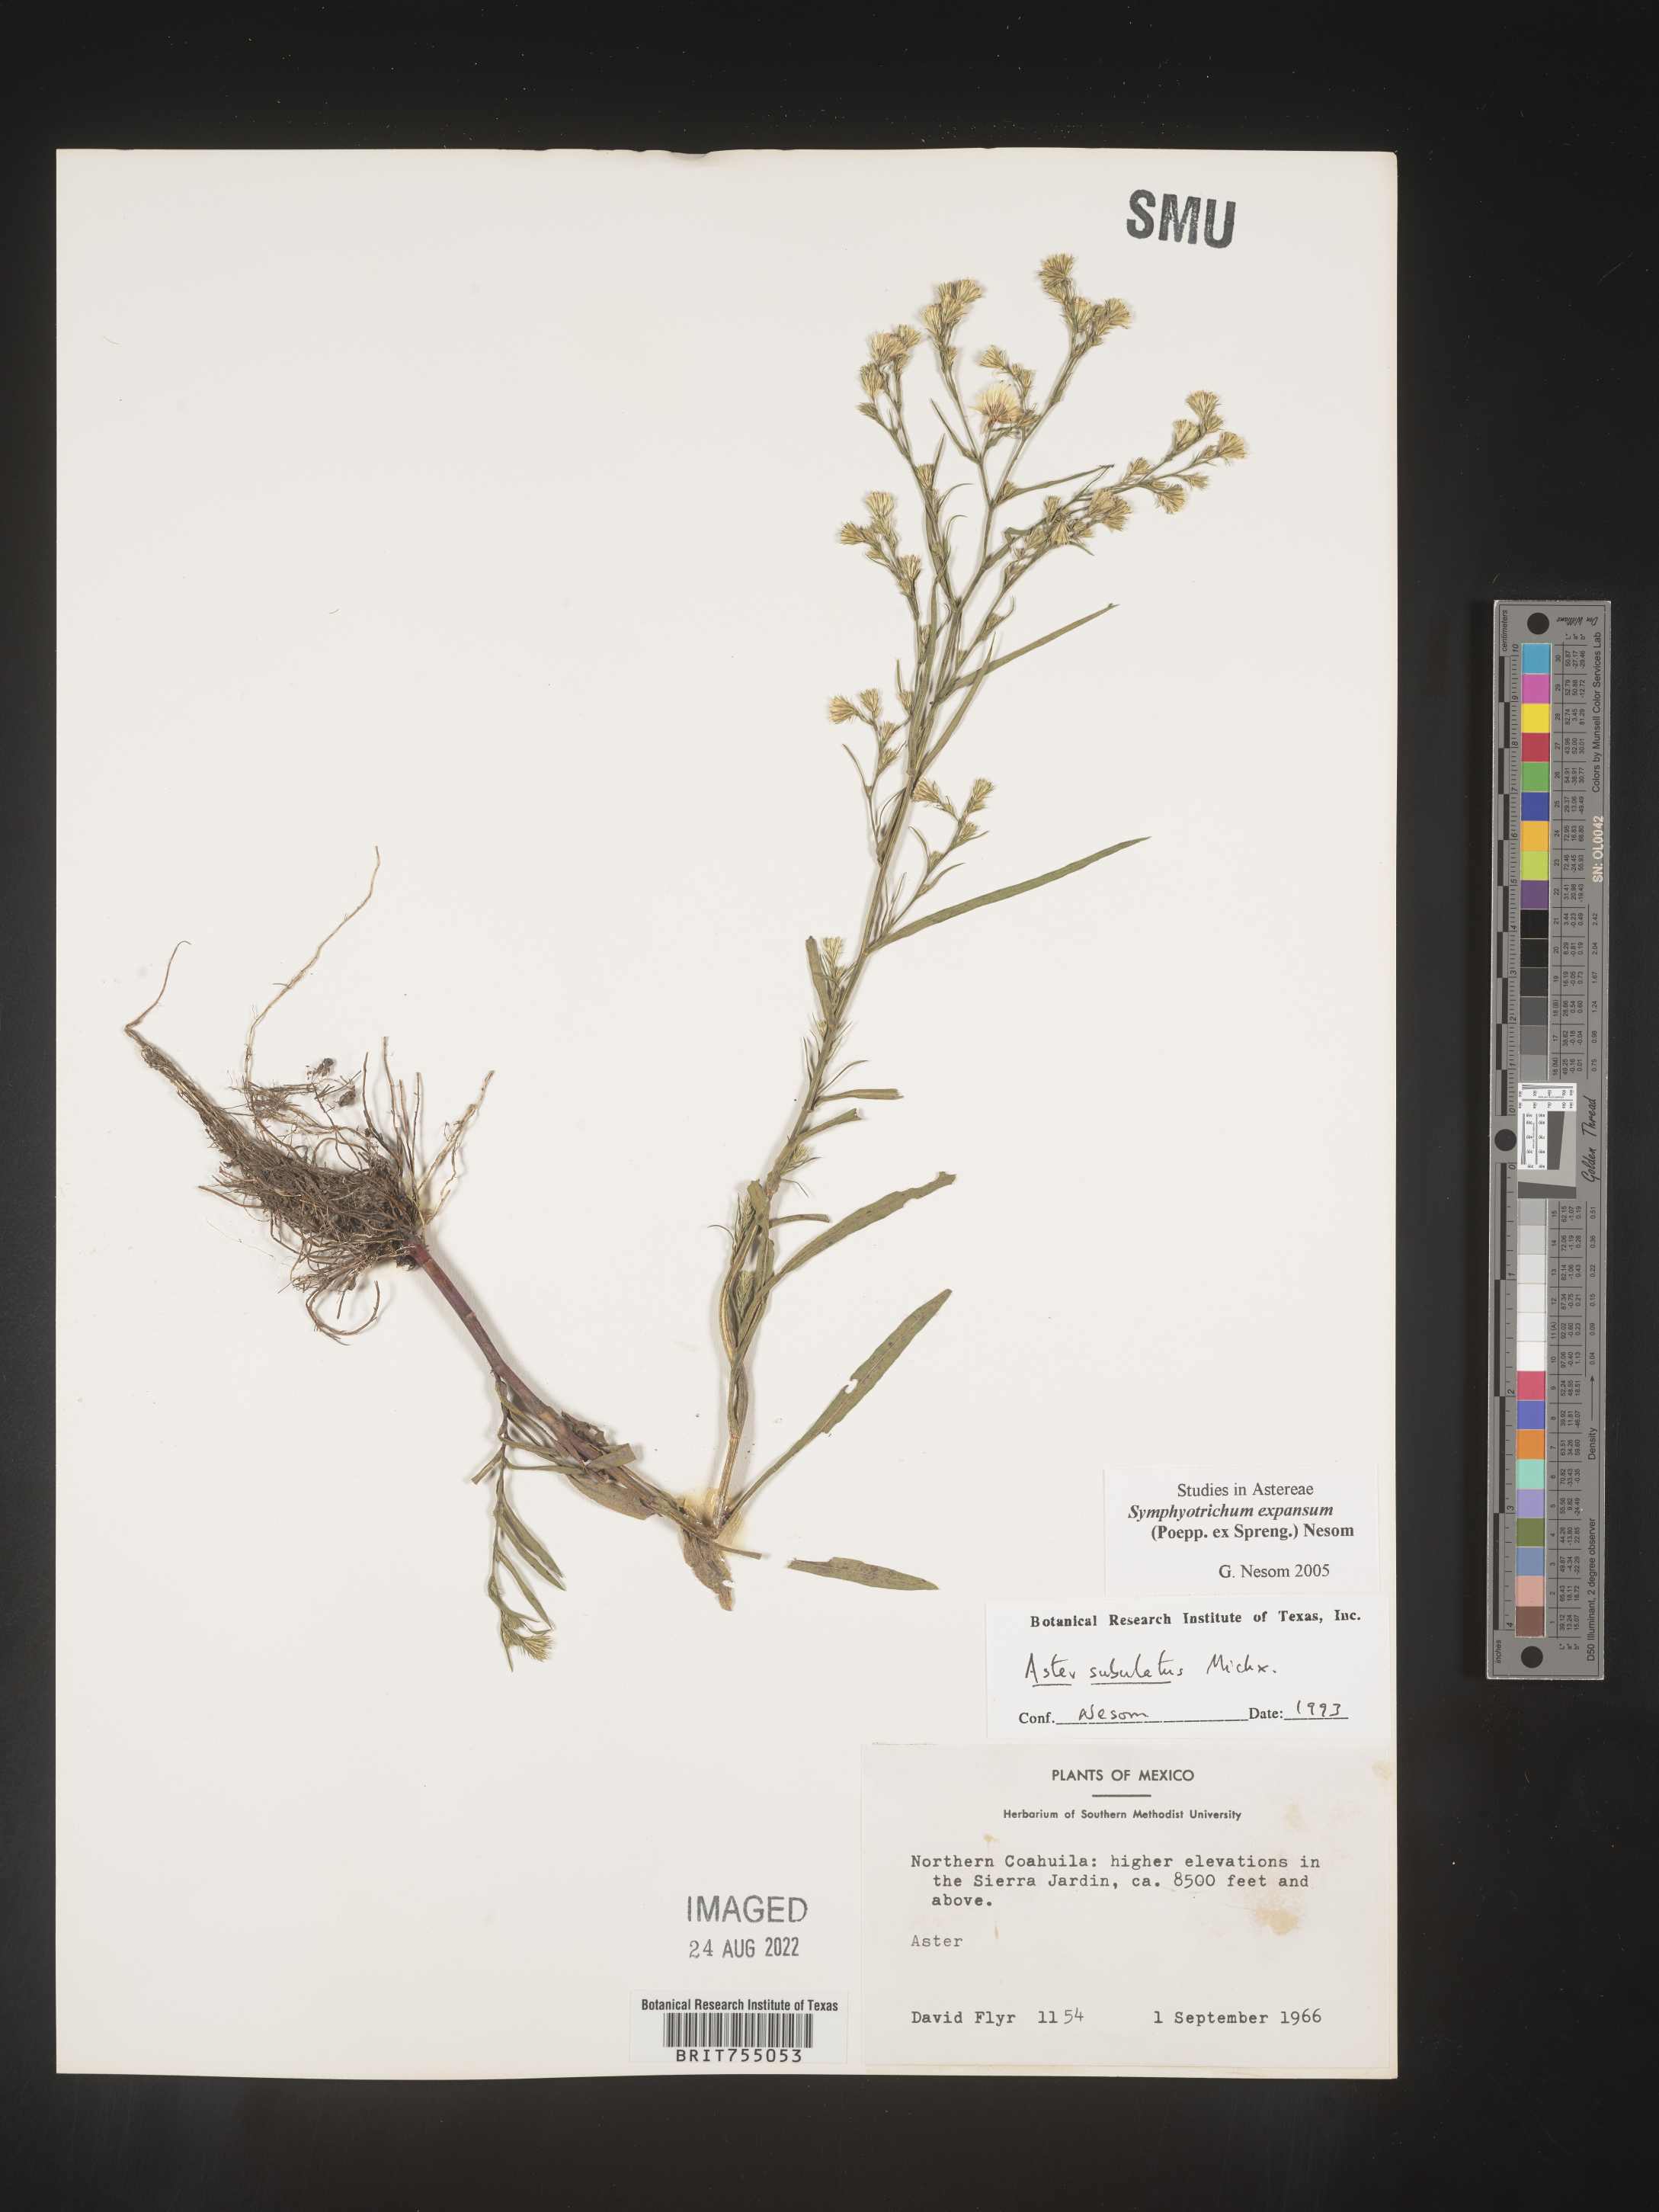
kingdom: Plantae
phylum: Tracheophyta
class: Magnoliopsida
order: Asterales
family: Asteraceae
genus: Symphyotrichum
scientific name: Symphyotrichum expansum
